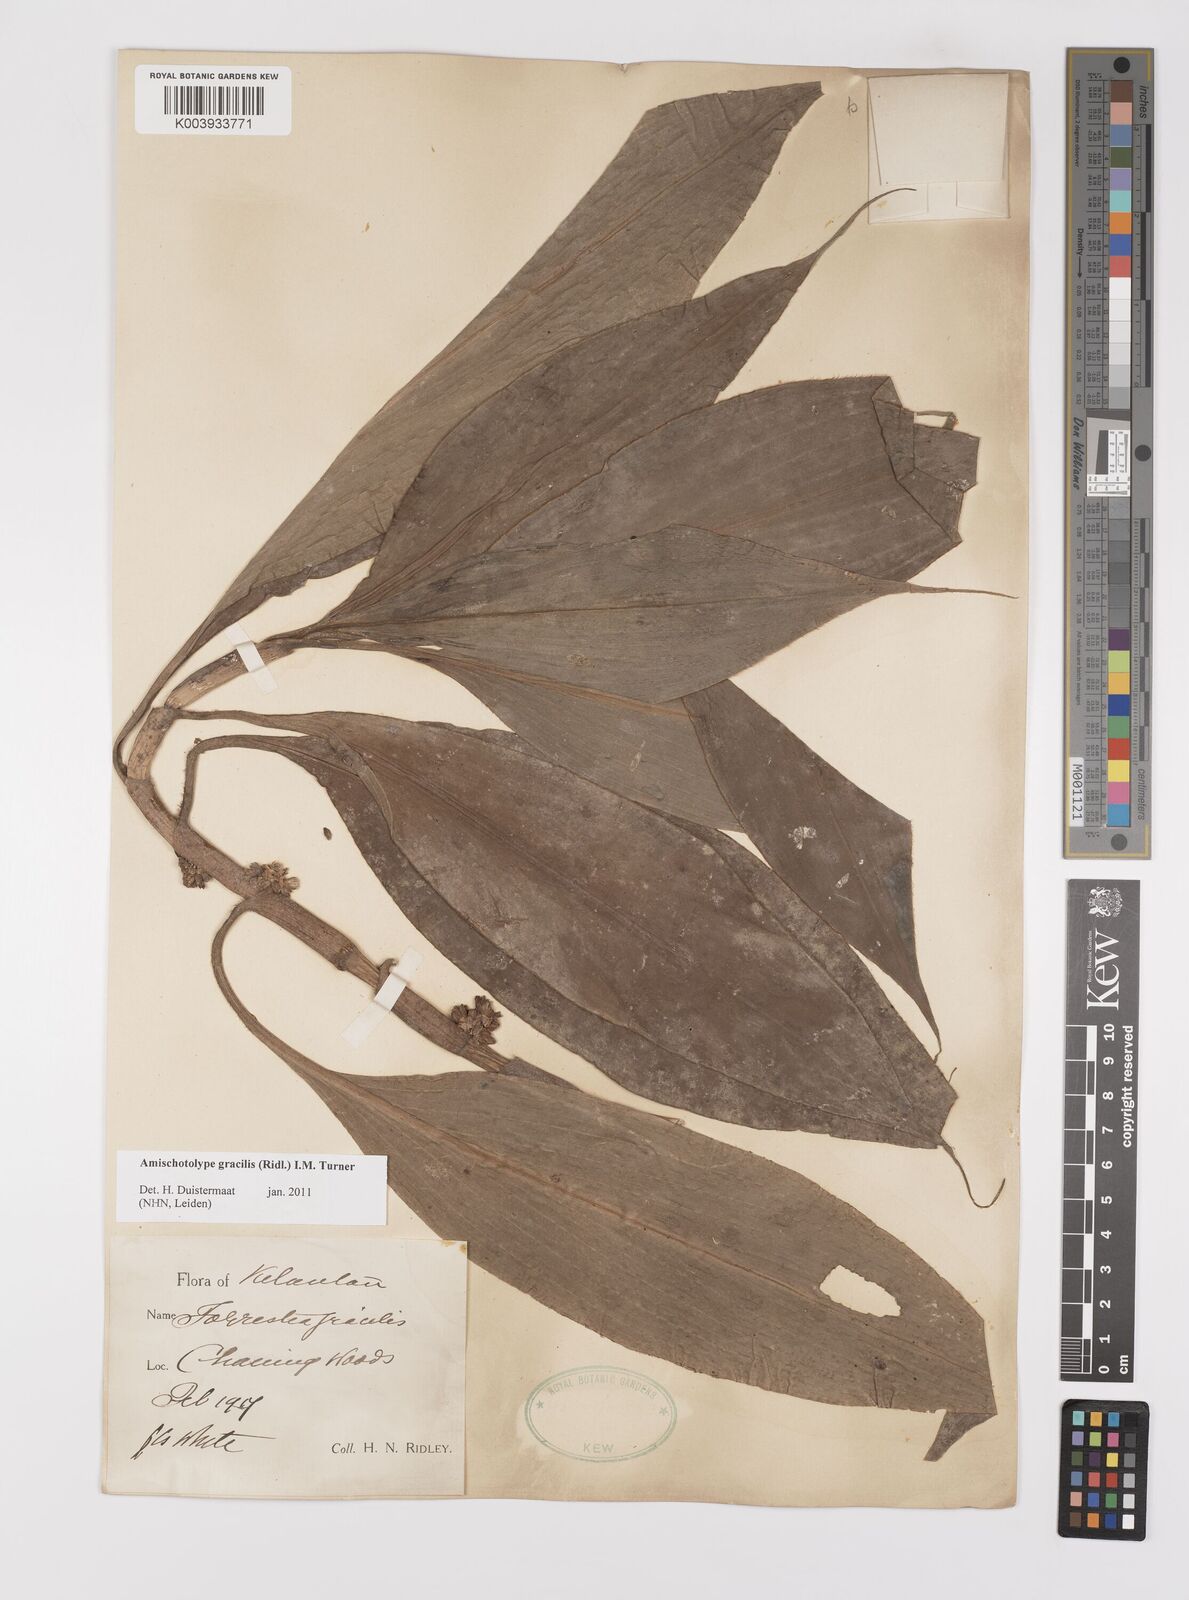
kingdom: Plantae
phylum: Tracheophyta
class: Liliopsida
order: Commelinales
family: Commelinaceae
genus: Amischotolype
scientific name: Amischotolype gracilis
